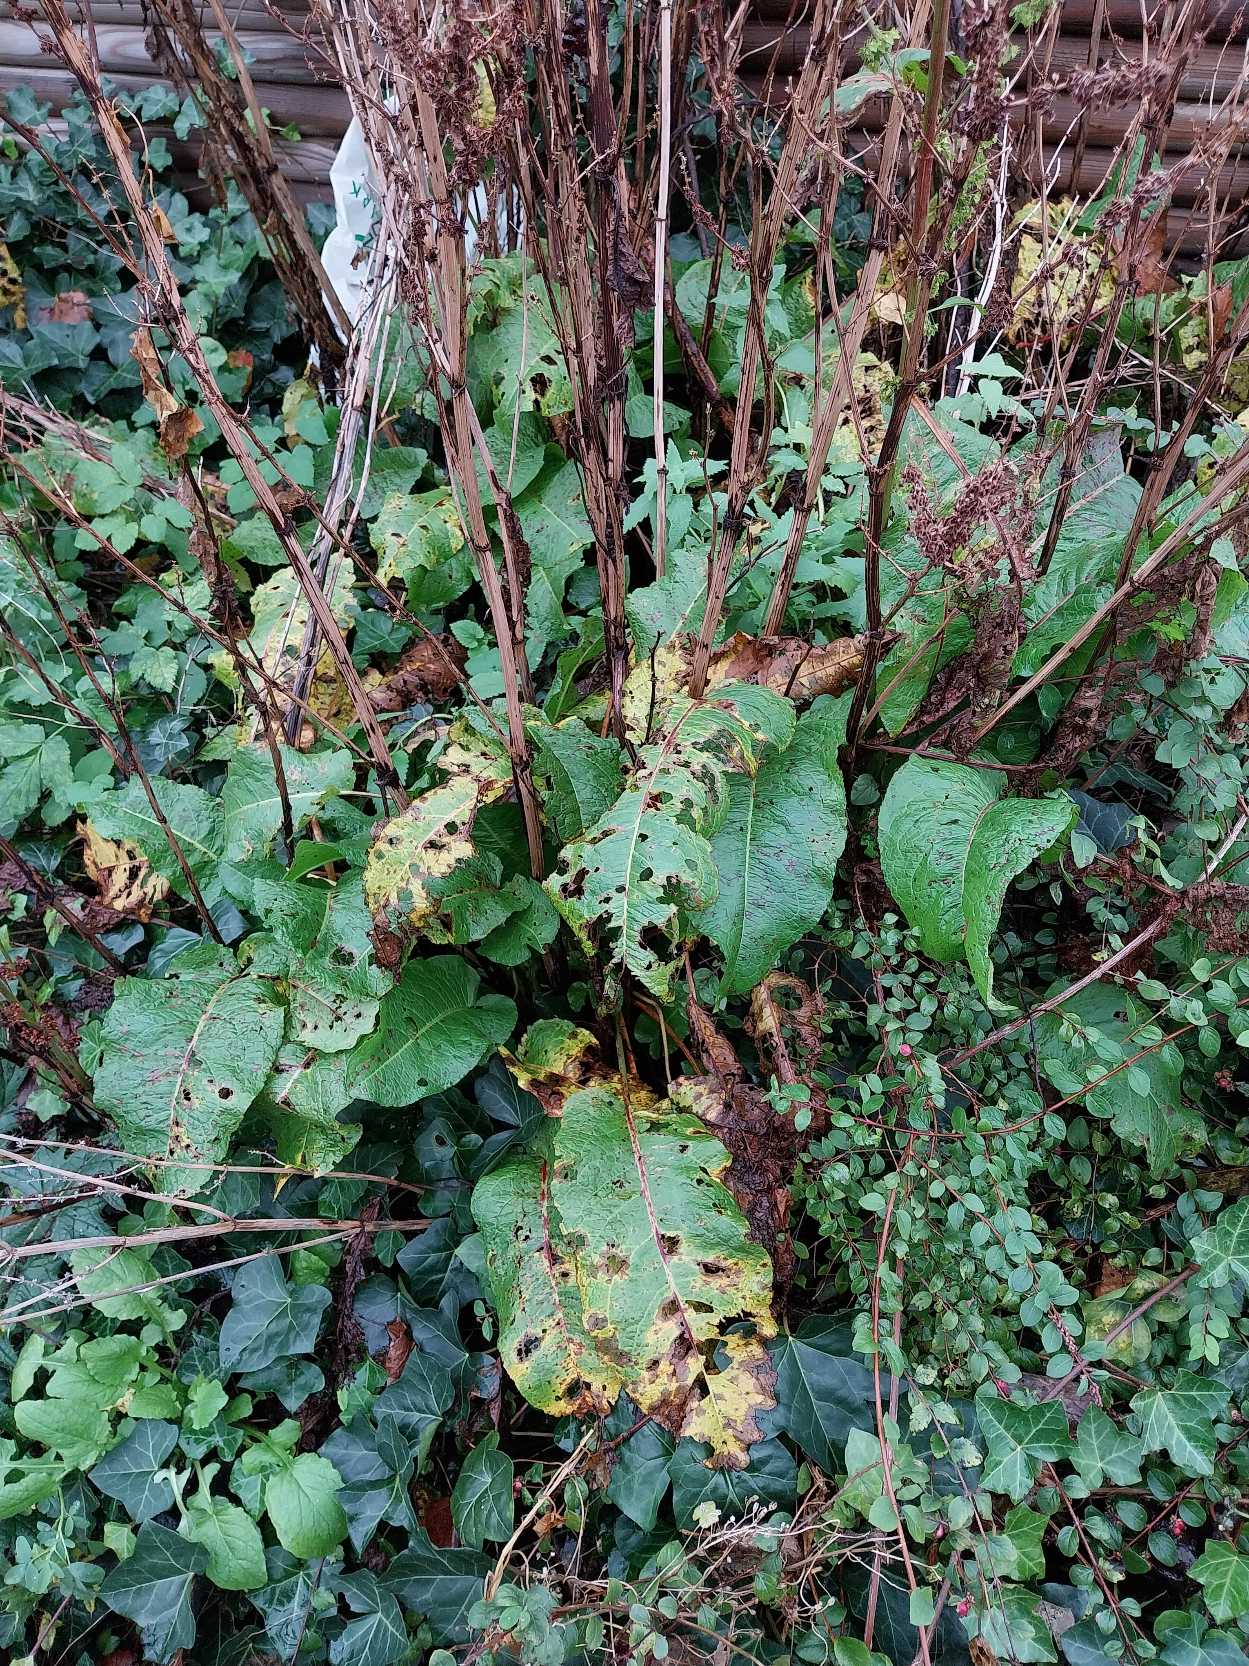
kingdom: Plantae
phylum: Tracheophyta
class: Magnoliopsida
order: Caryophyllales
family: Polygonaceae
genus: Rumex
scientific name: Rumex obtusifolius
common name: Butbladet skræppe
